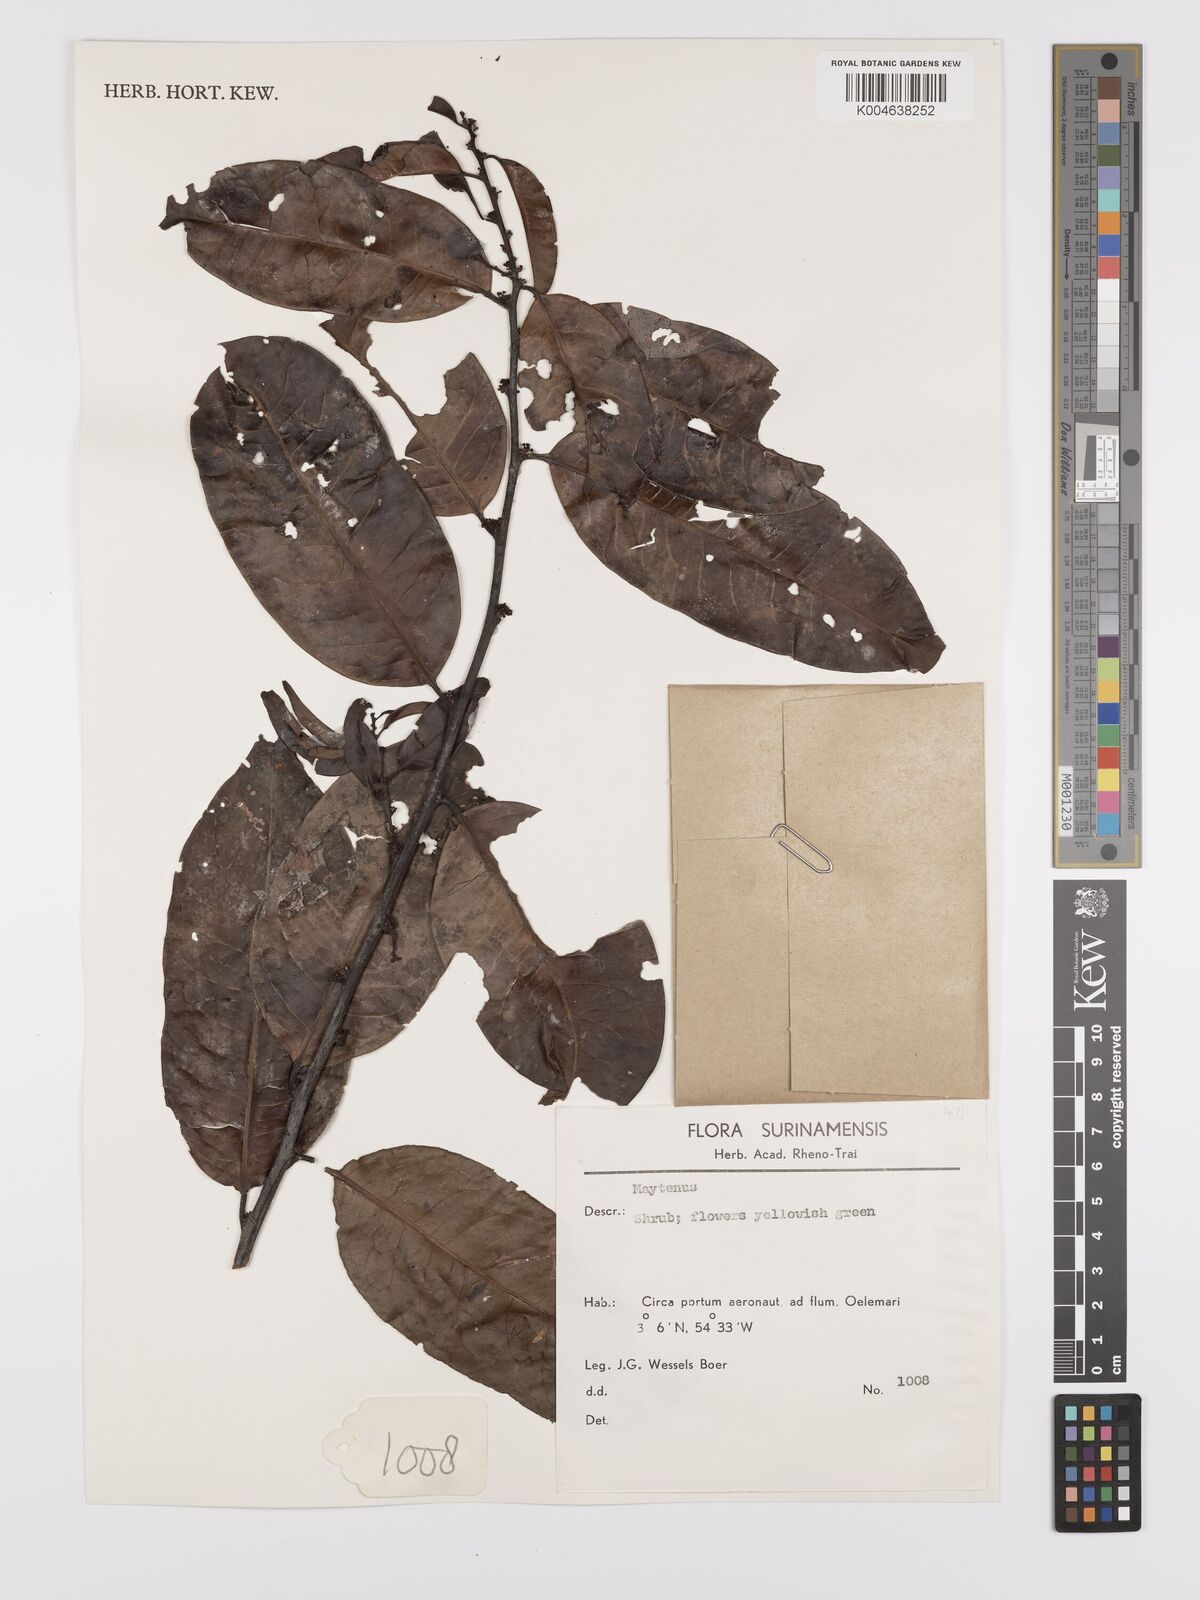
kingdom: Plantae
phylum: Tracheophyta
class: Magnoliopsida
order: Celastrales
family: Celastraceae
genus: Maytenus
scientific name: Maytenus
